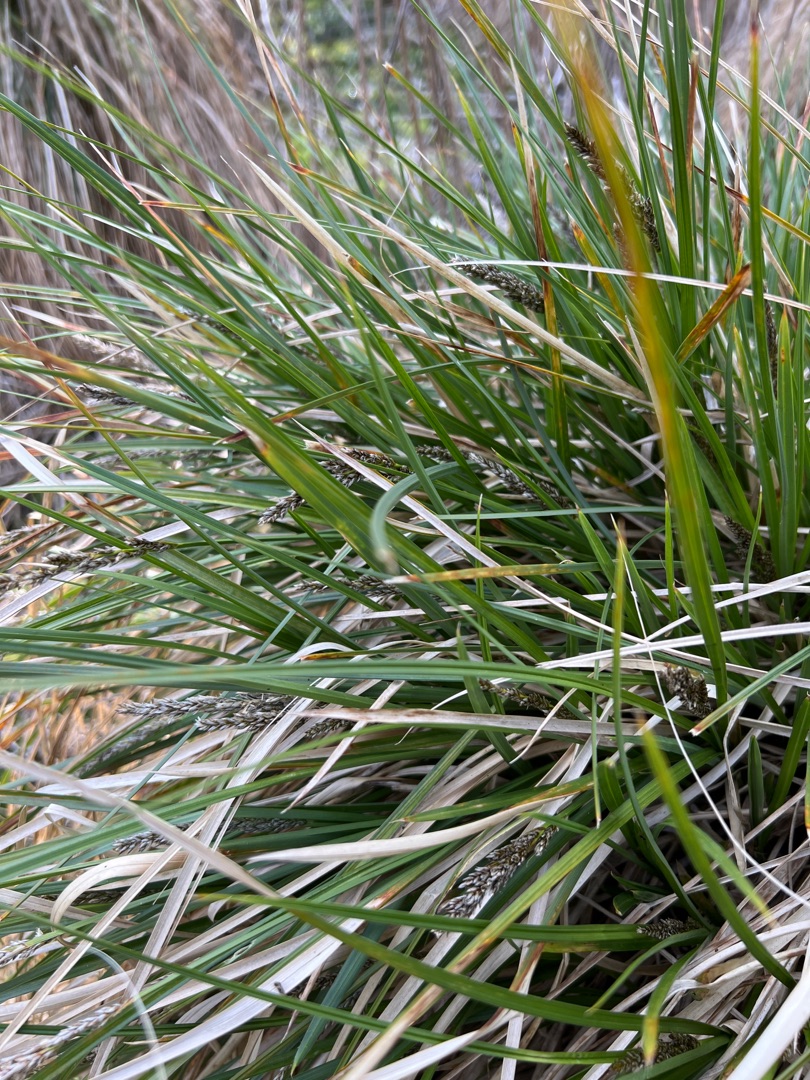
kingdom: Plantae
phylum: Tracheophyta
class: Liliopsida
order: Poales
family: Cyperaceae
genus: Carex
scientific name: Carex paniculata
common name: Top-star
